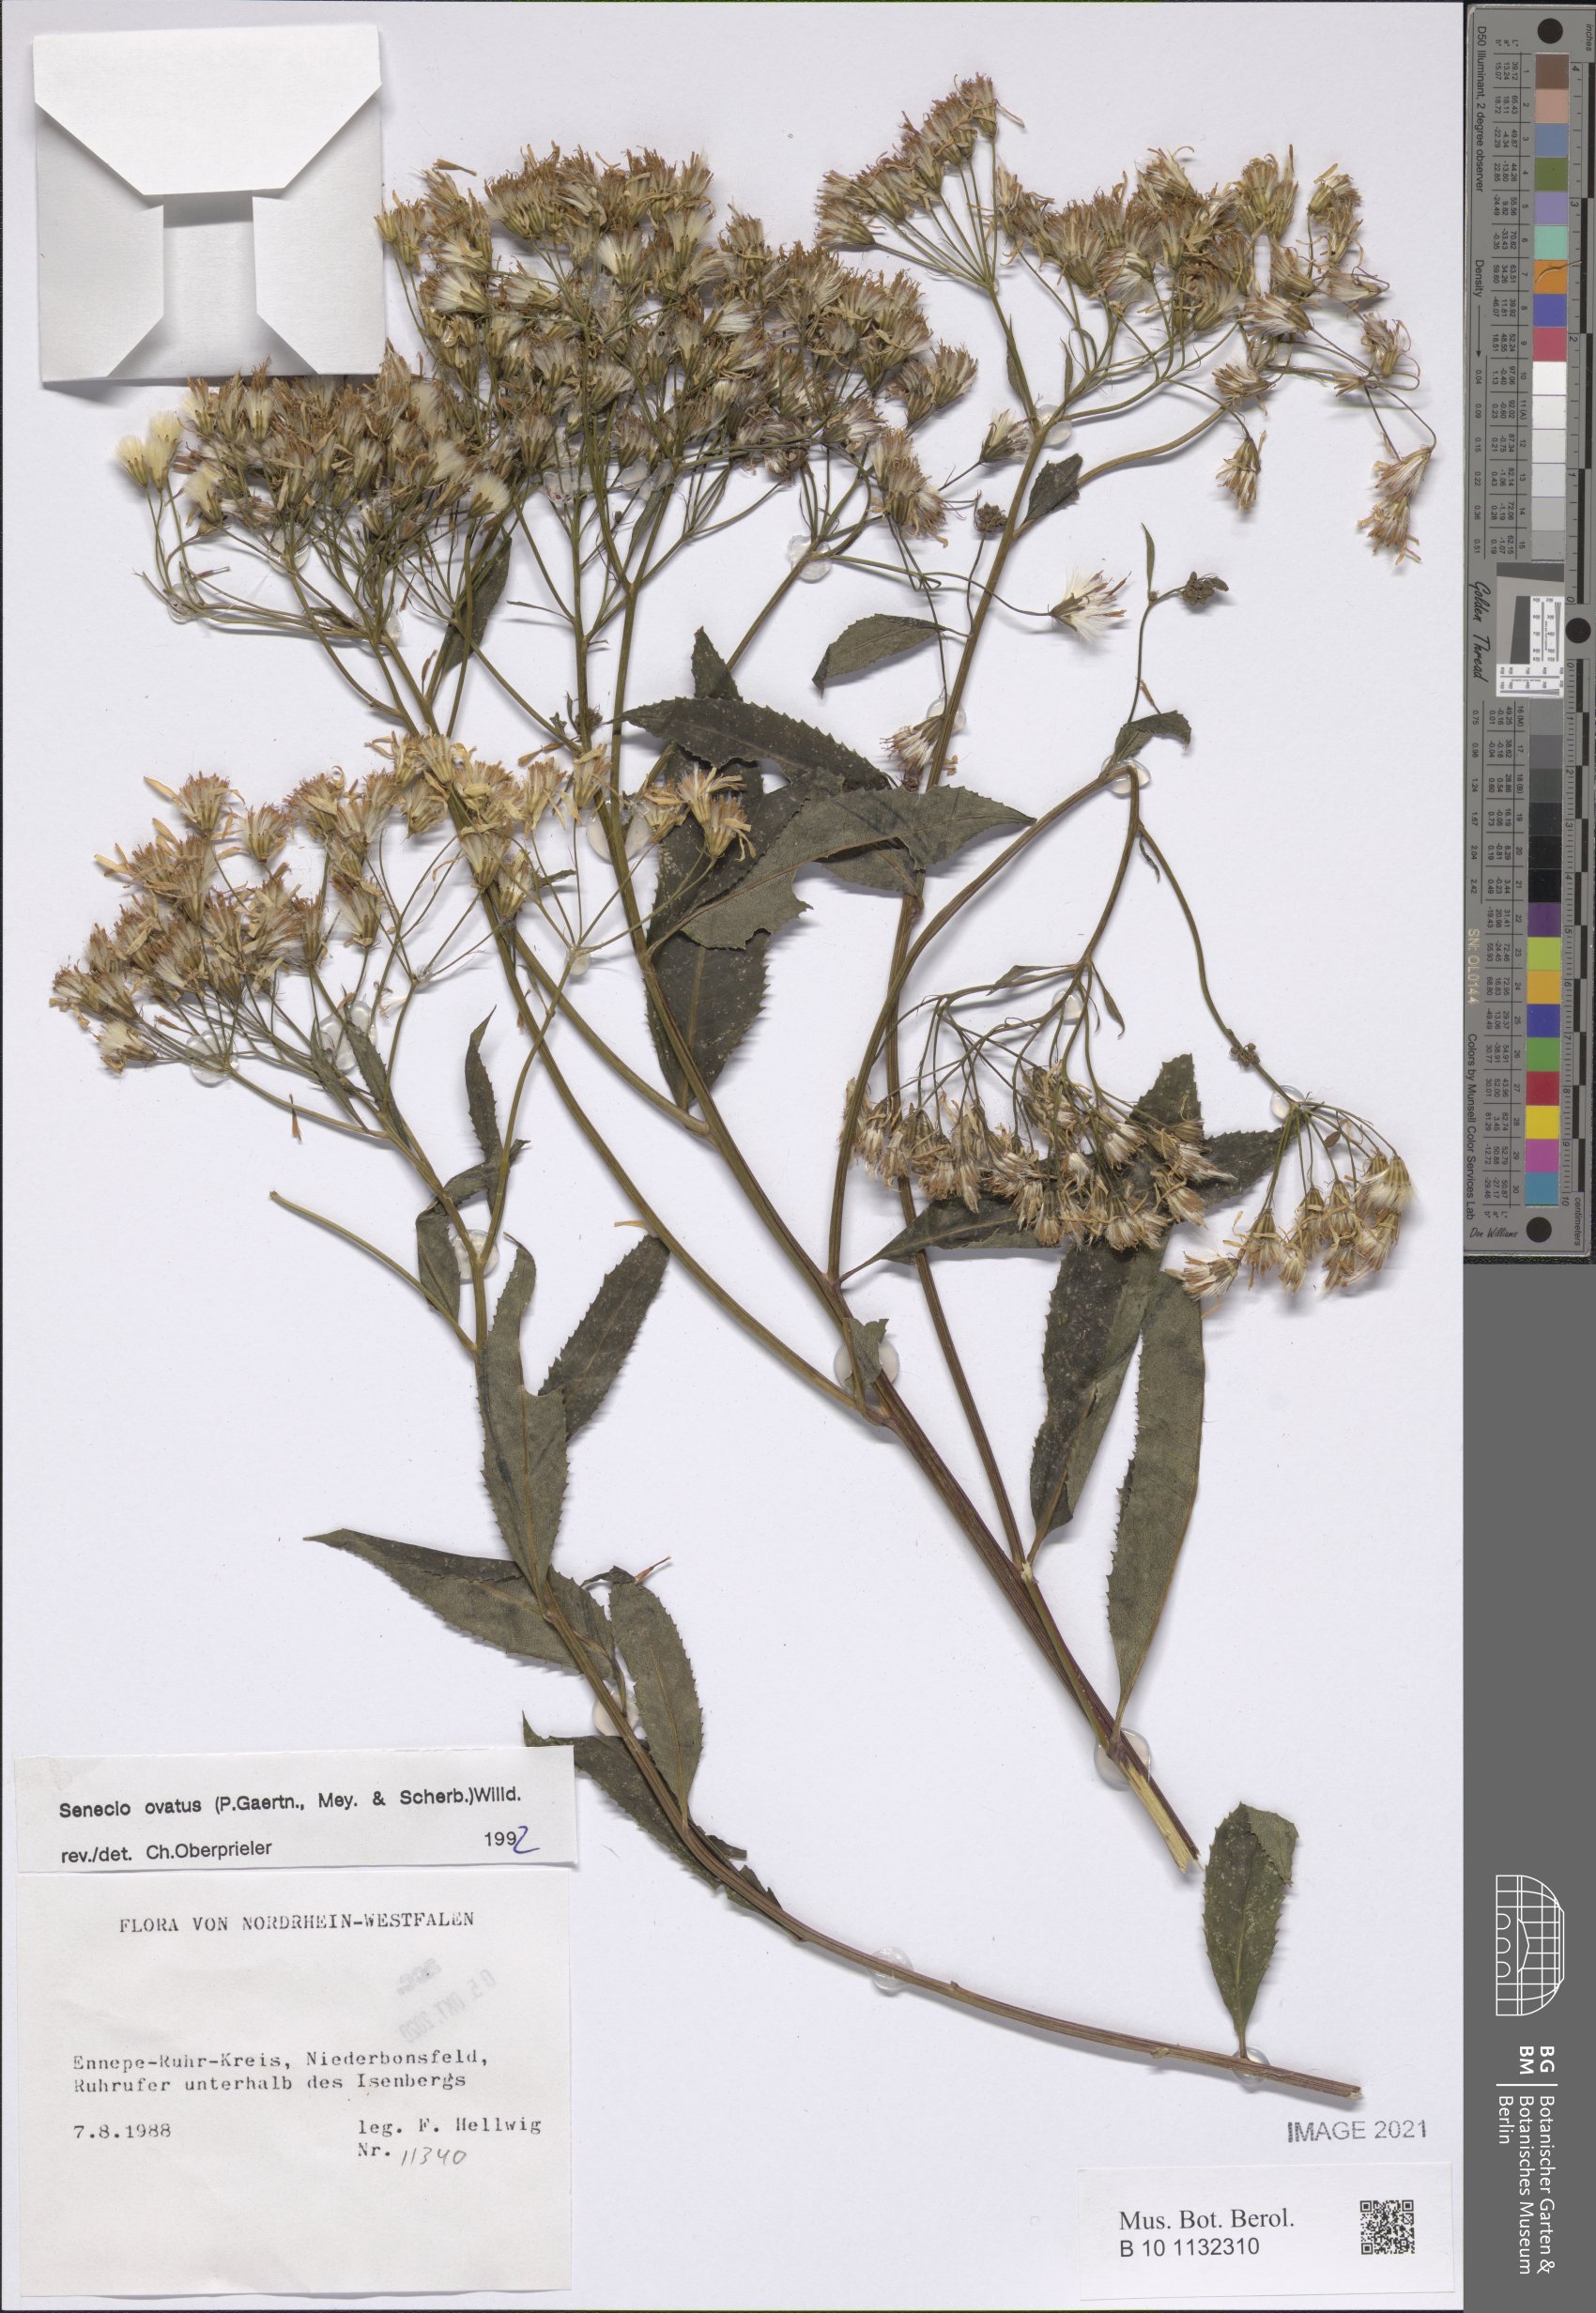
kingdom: Plantae
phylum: Tracheophyta
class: Magnoliopsida
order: Asterales
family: Asteraceae
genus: Senecio
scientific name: Senecio ovatus
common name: Wood ragwort
